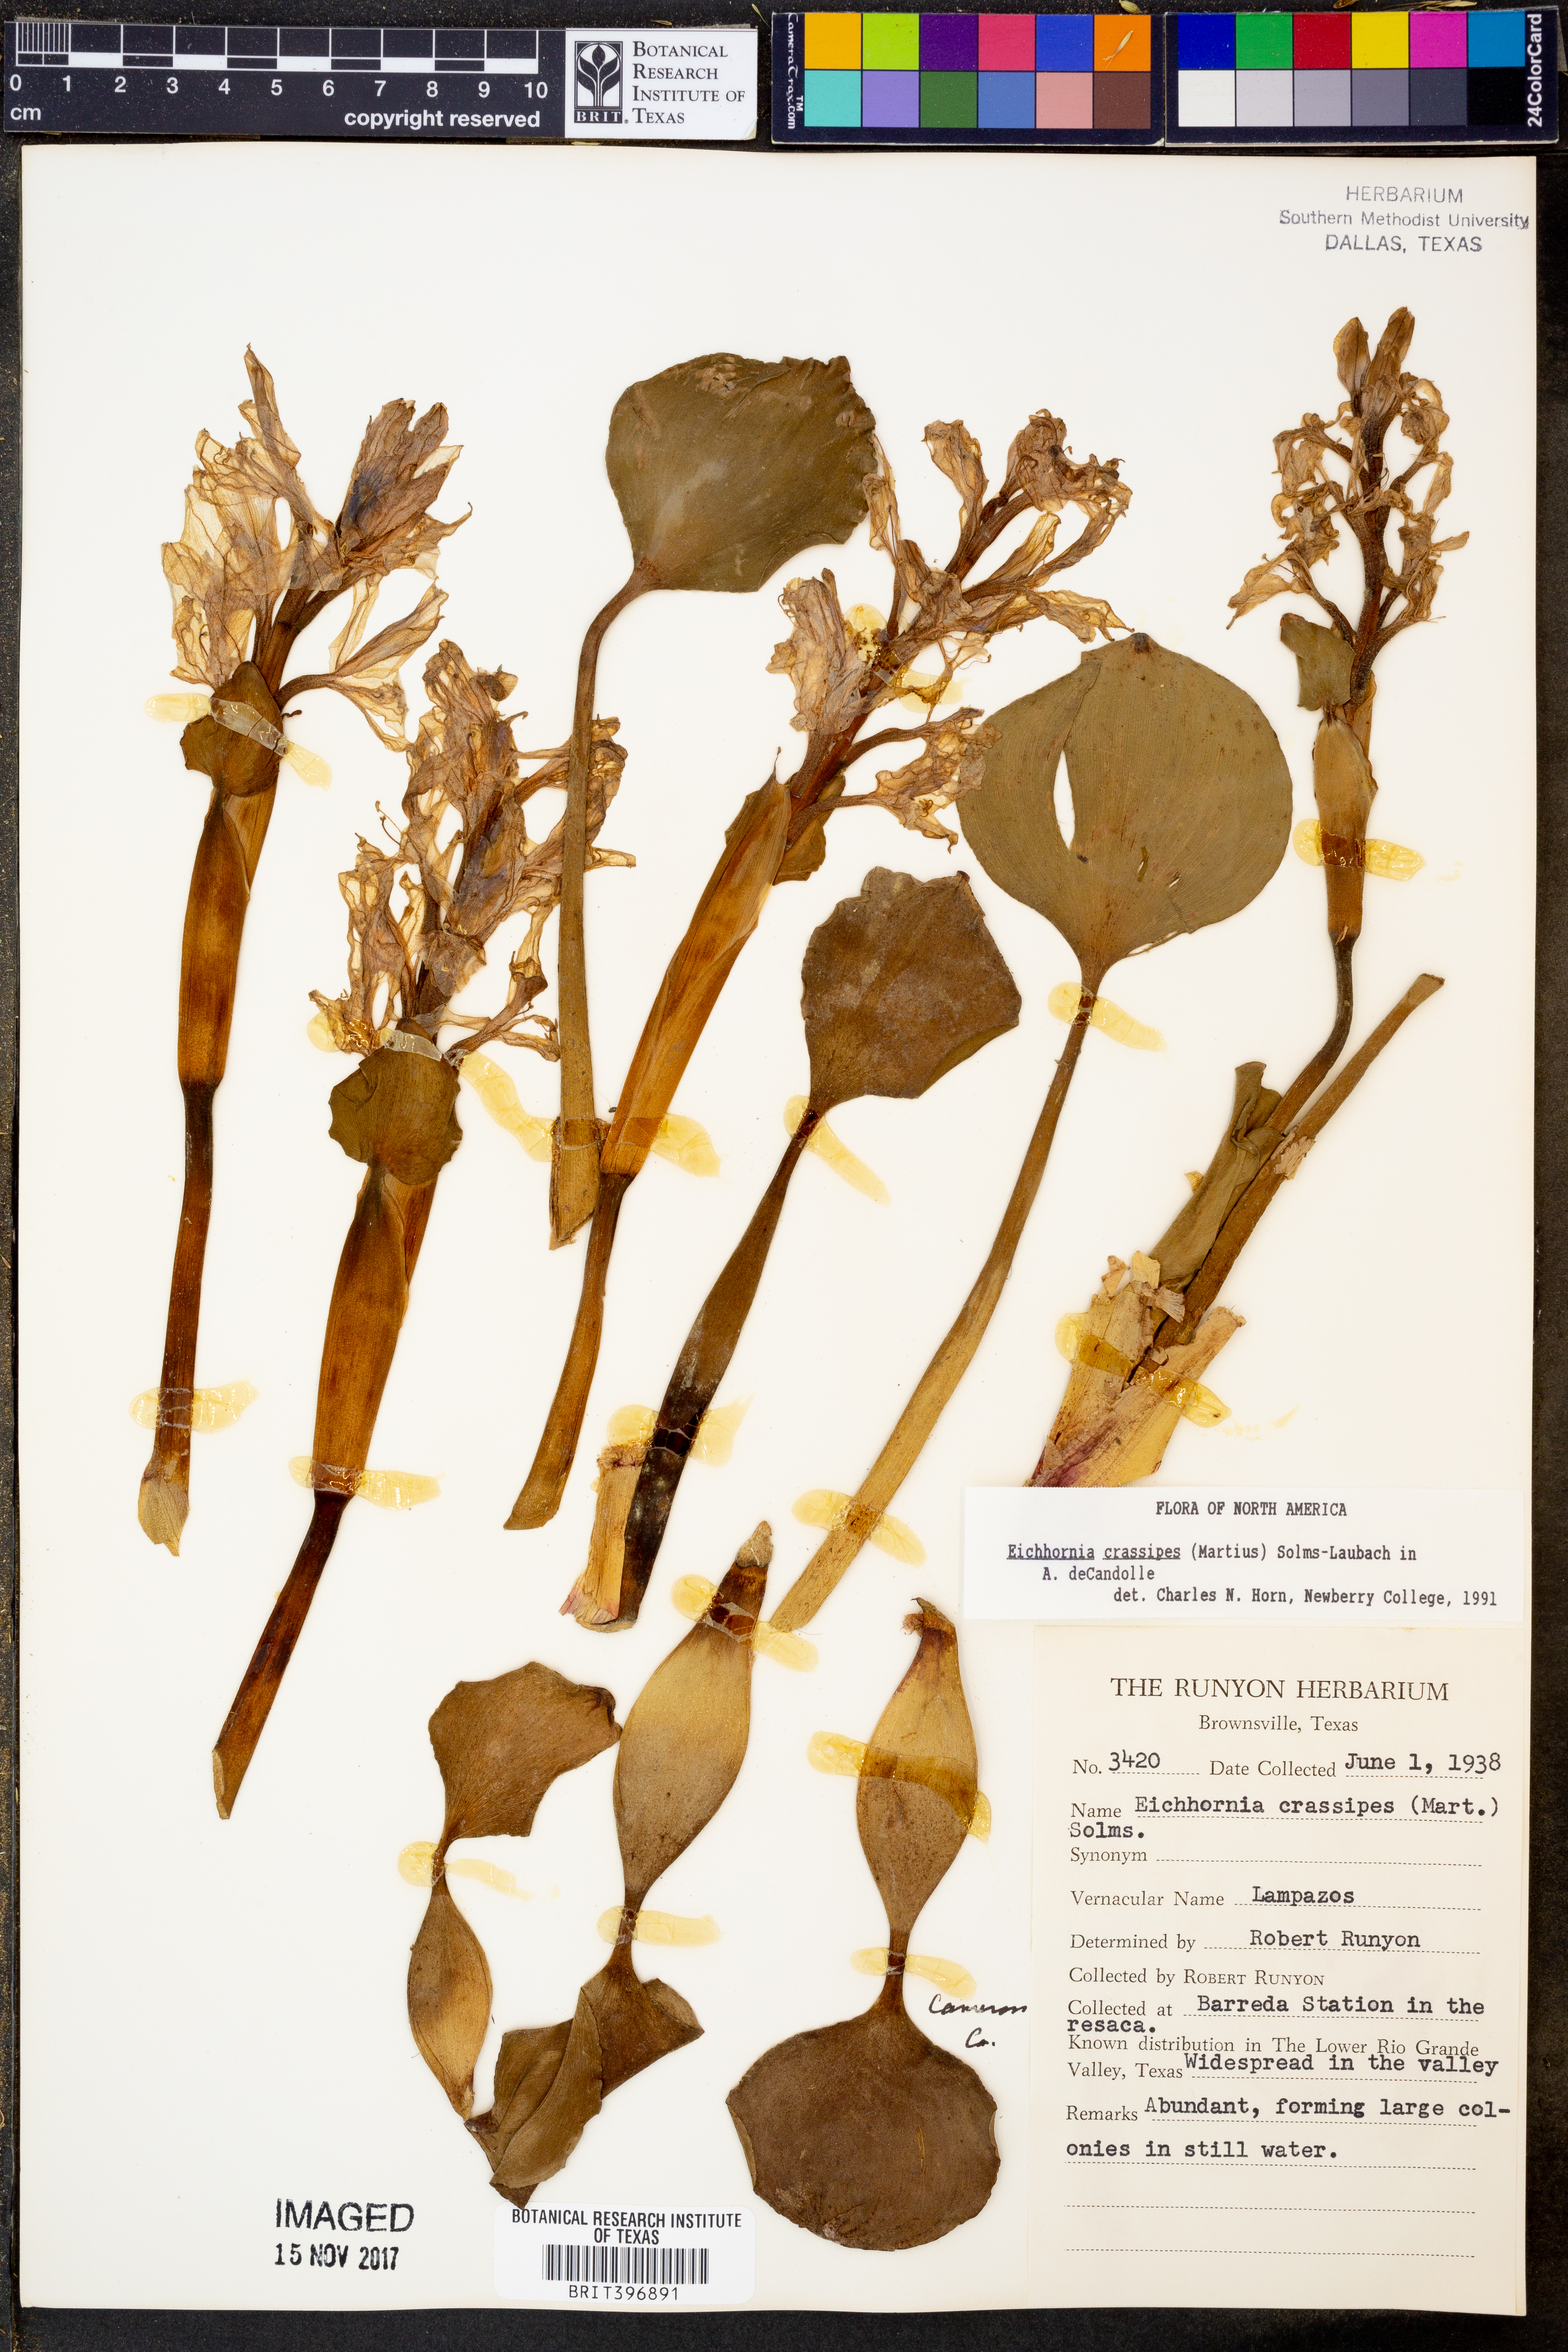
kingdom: Plantae
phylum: Tracheophyta
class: Liliopsida
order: Commelinales
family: Pontederiaceae
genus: Pontederia
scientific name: Pontederia crassipes
